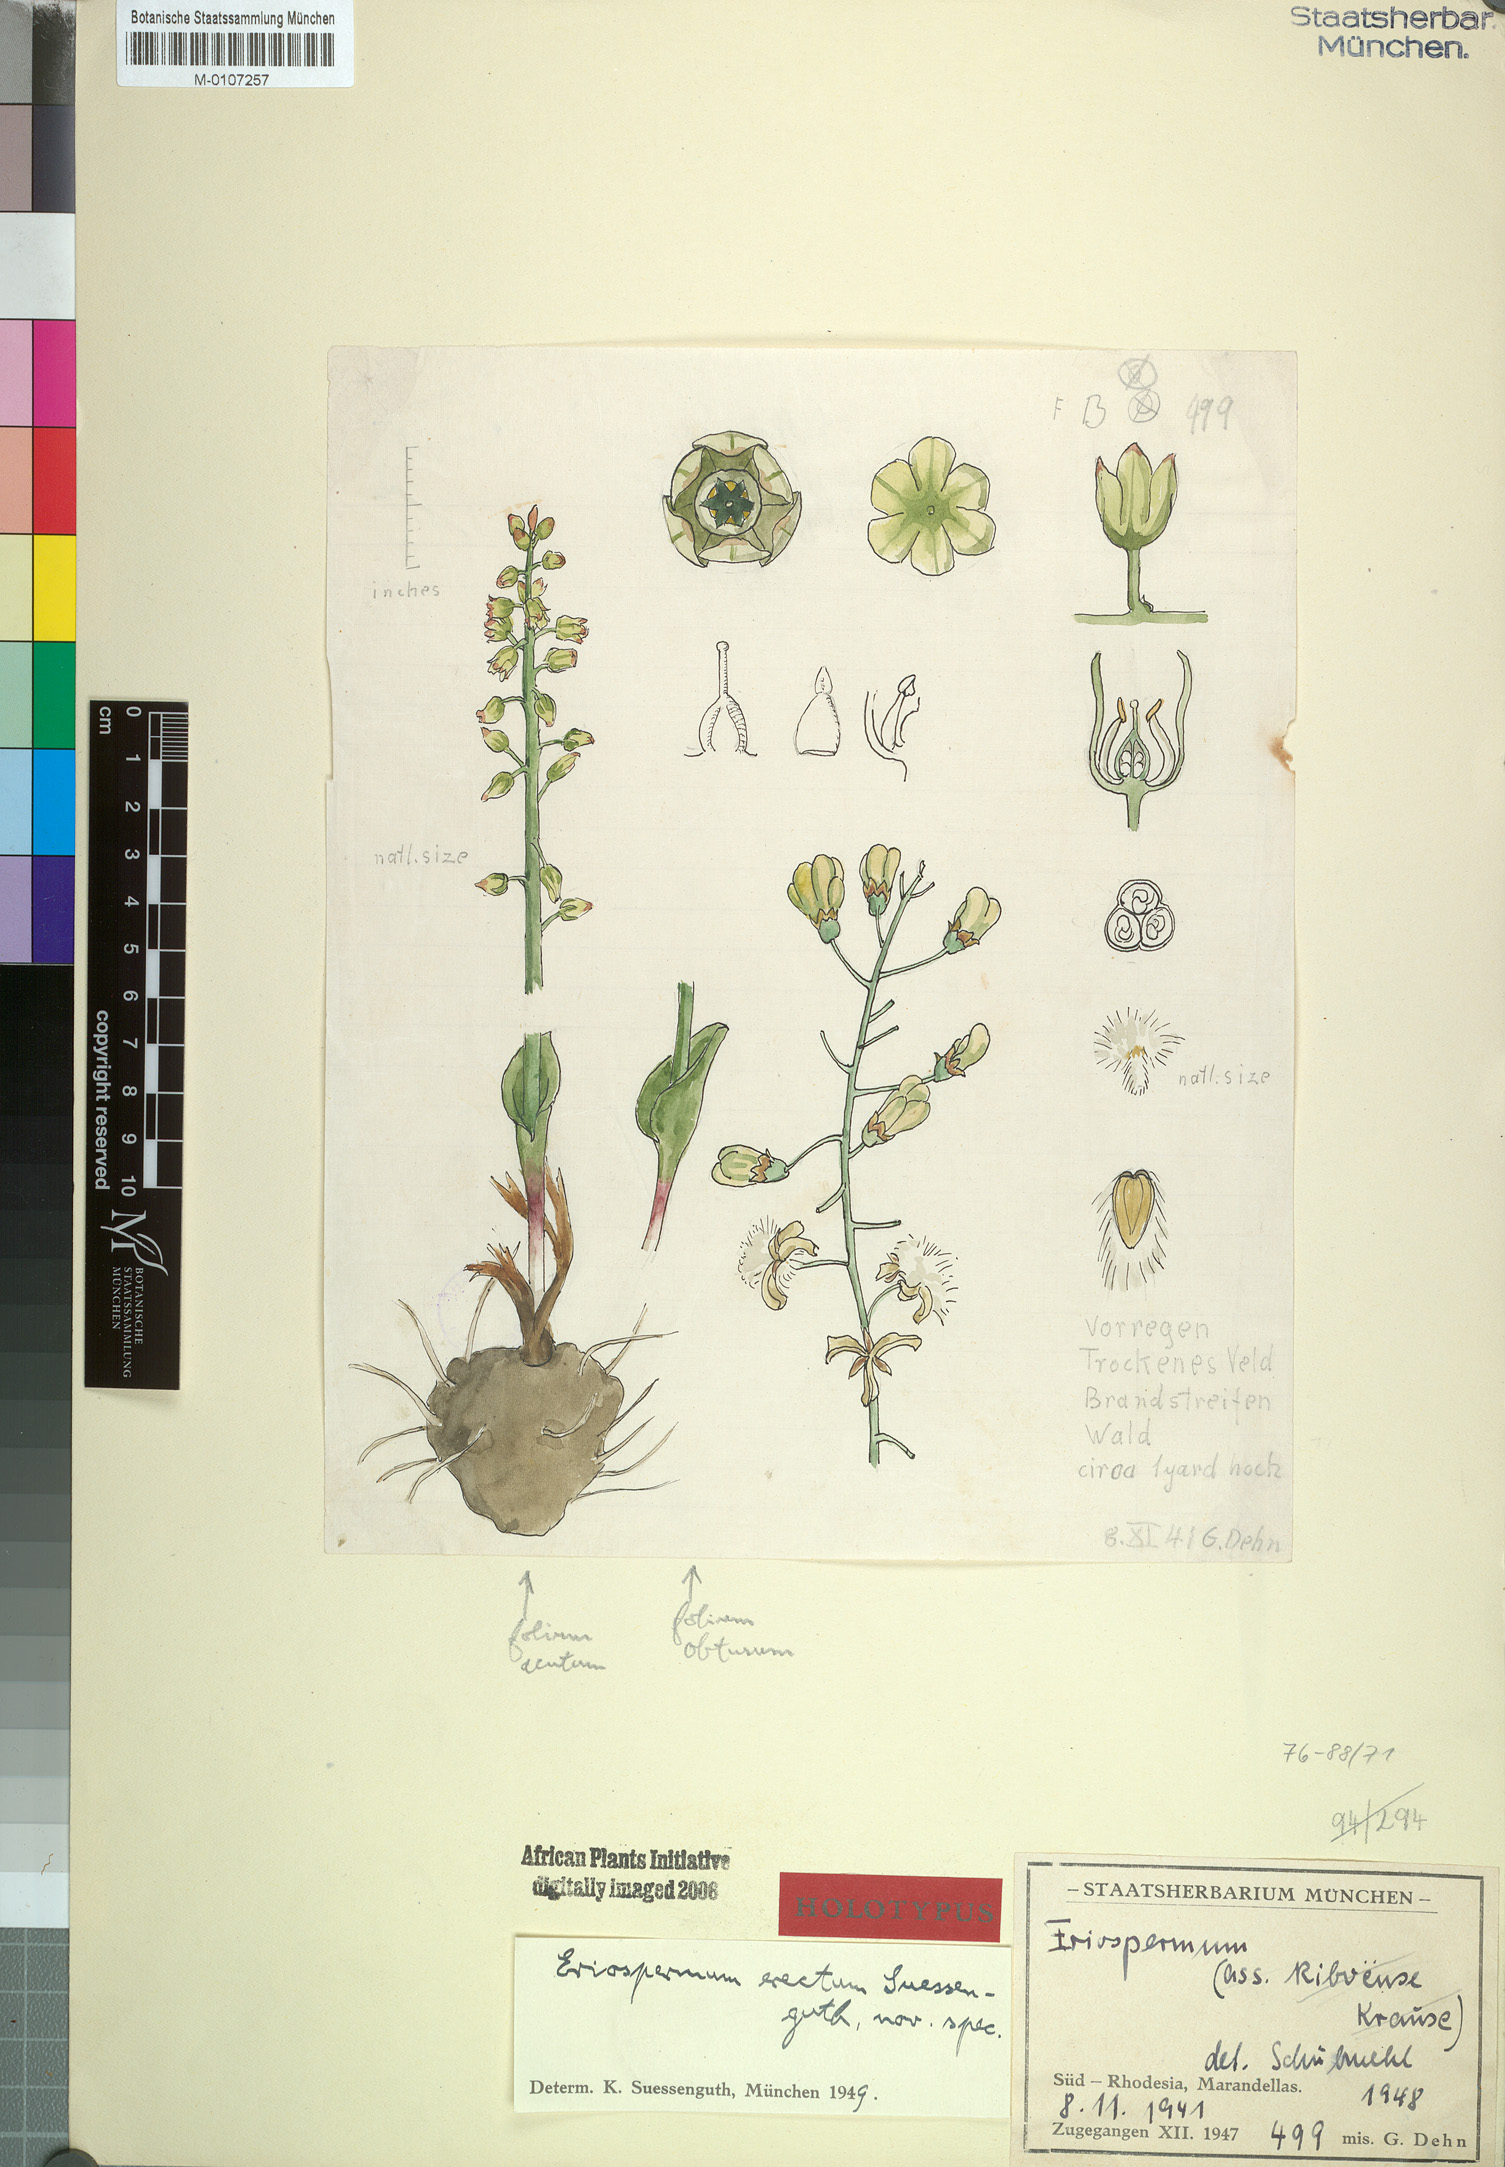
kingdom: Plantae
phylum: Tracheophyta
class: Liliopsida
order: Asparagales
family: Asparagaceae
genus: Eriospermum
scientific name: Eriospermum kiboense
